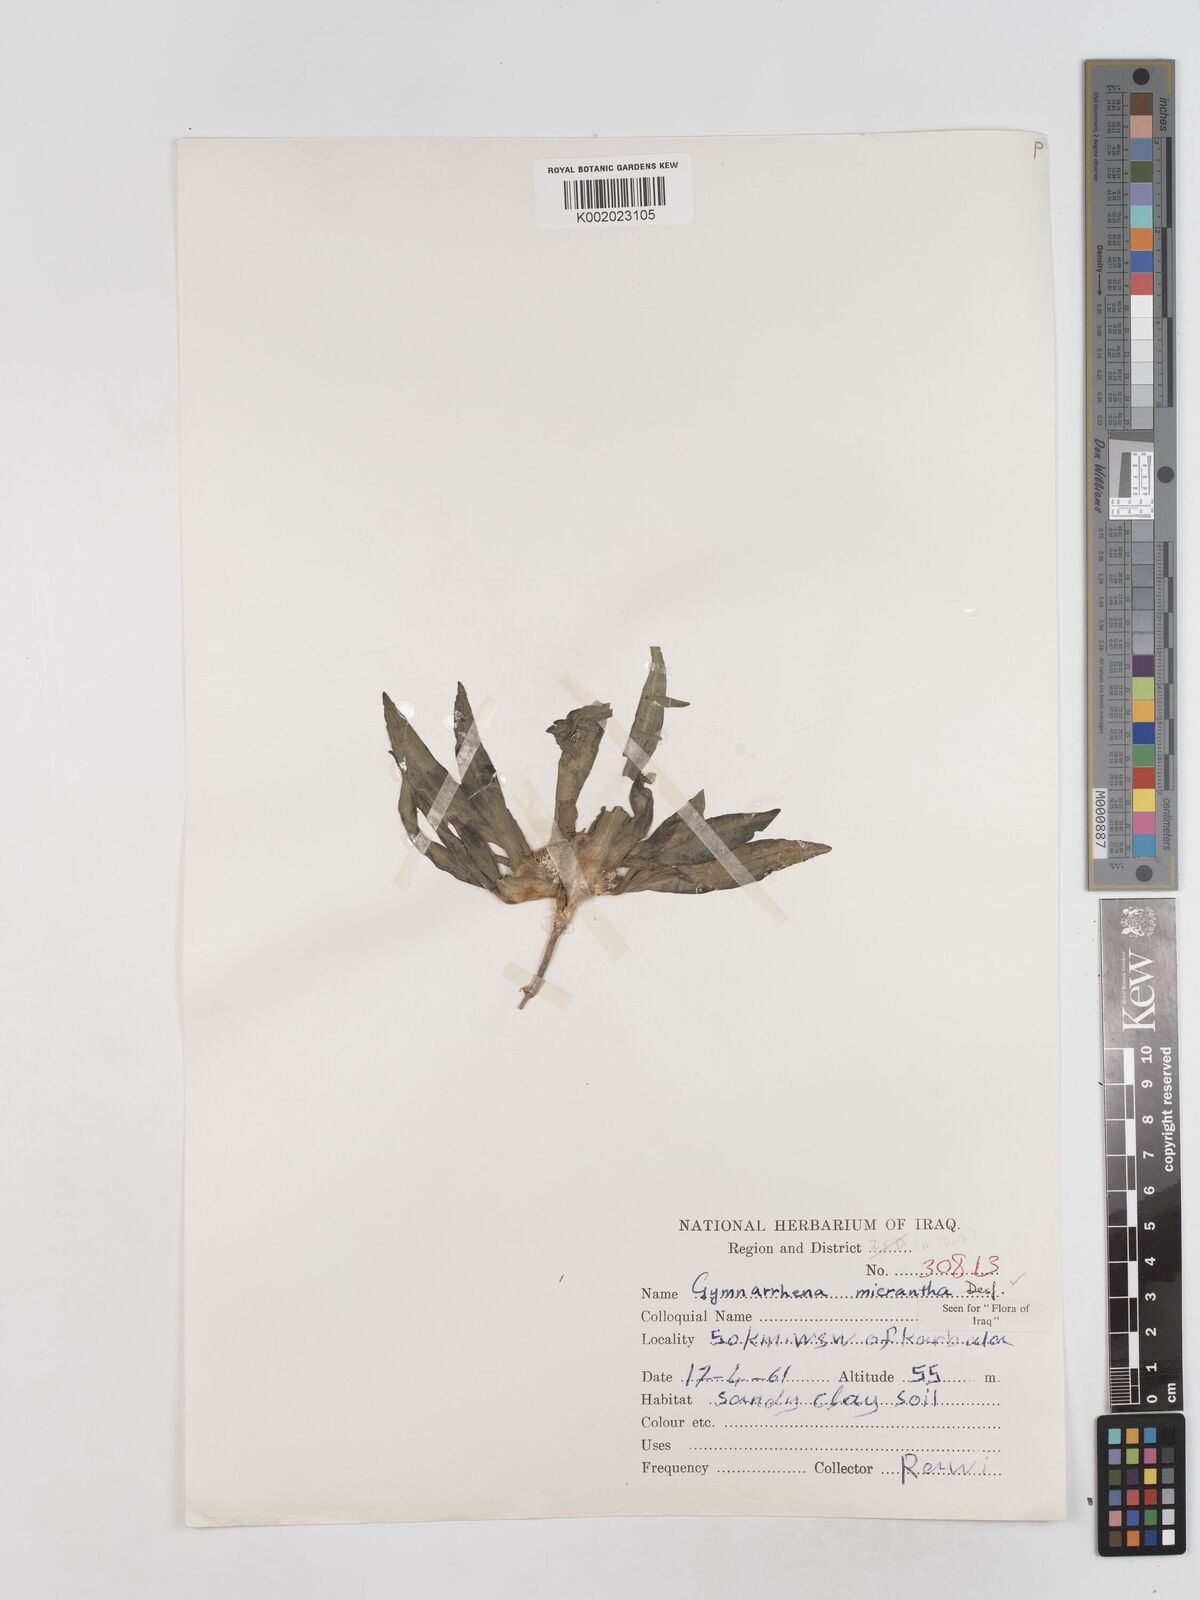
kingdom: Plantae
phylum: Tracheophyta
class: Magnoliopsida
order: Asterales
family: Asteraceae
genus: Gymnarrhena
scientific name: Gymnarrhena micrantha
